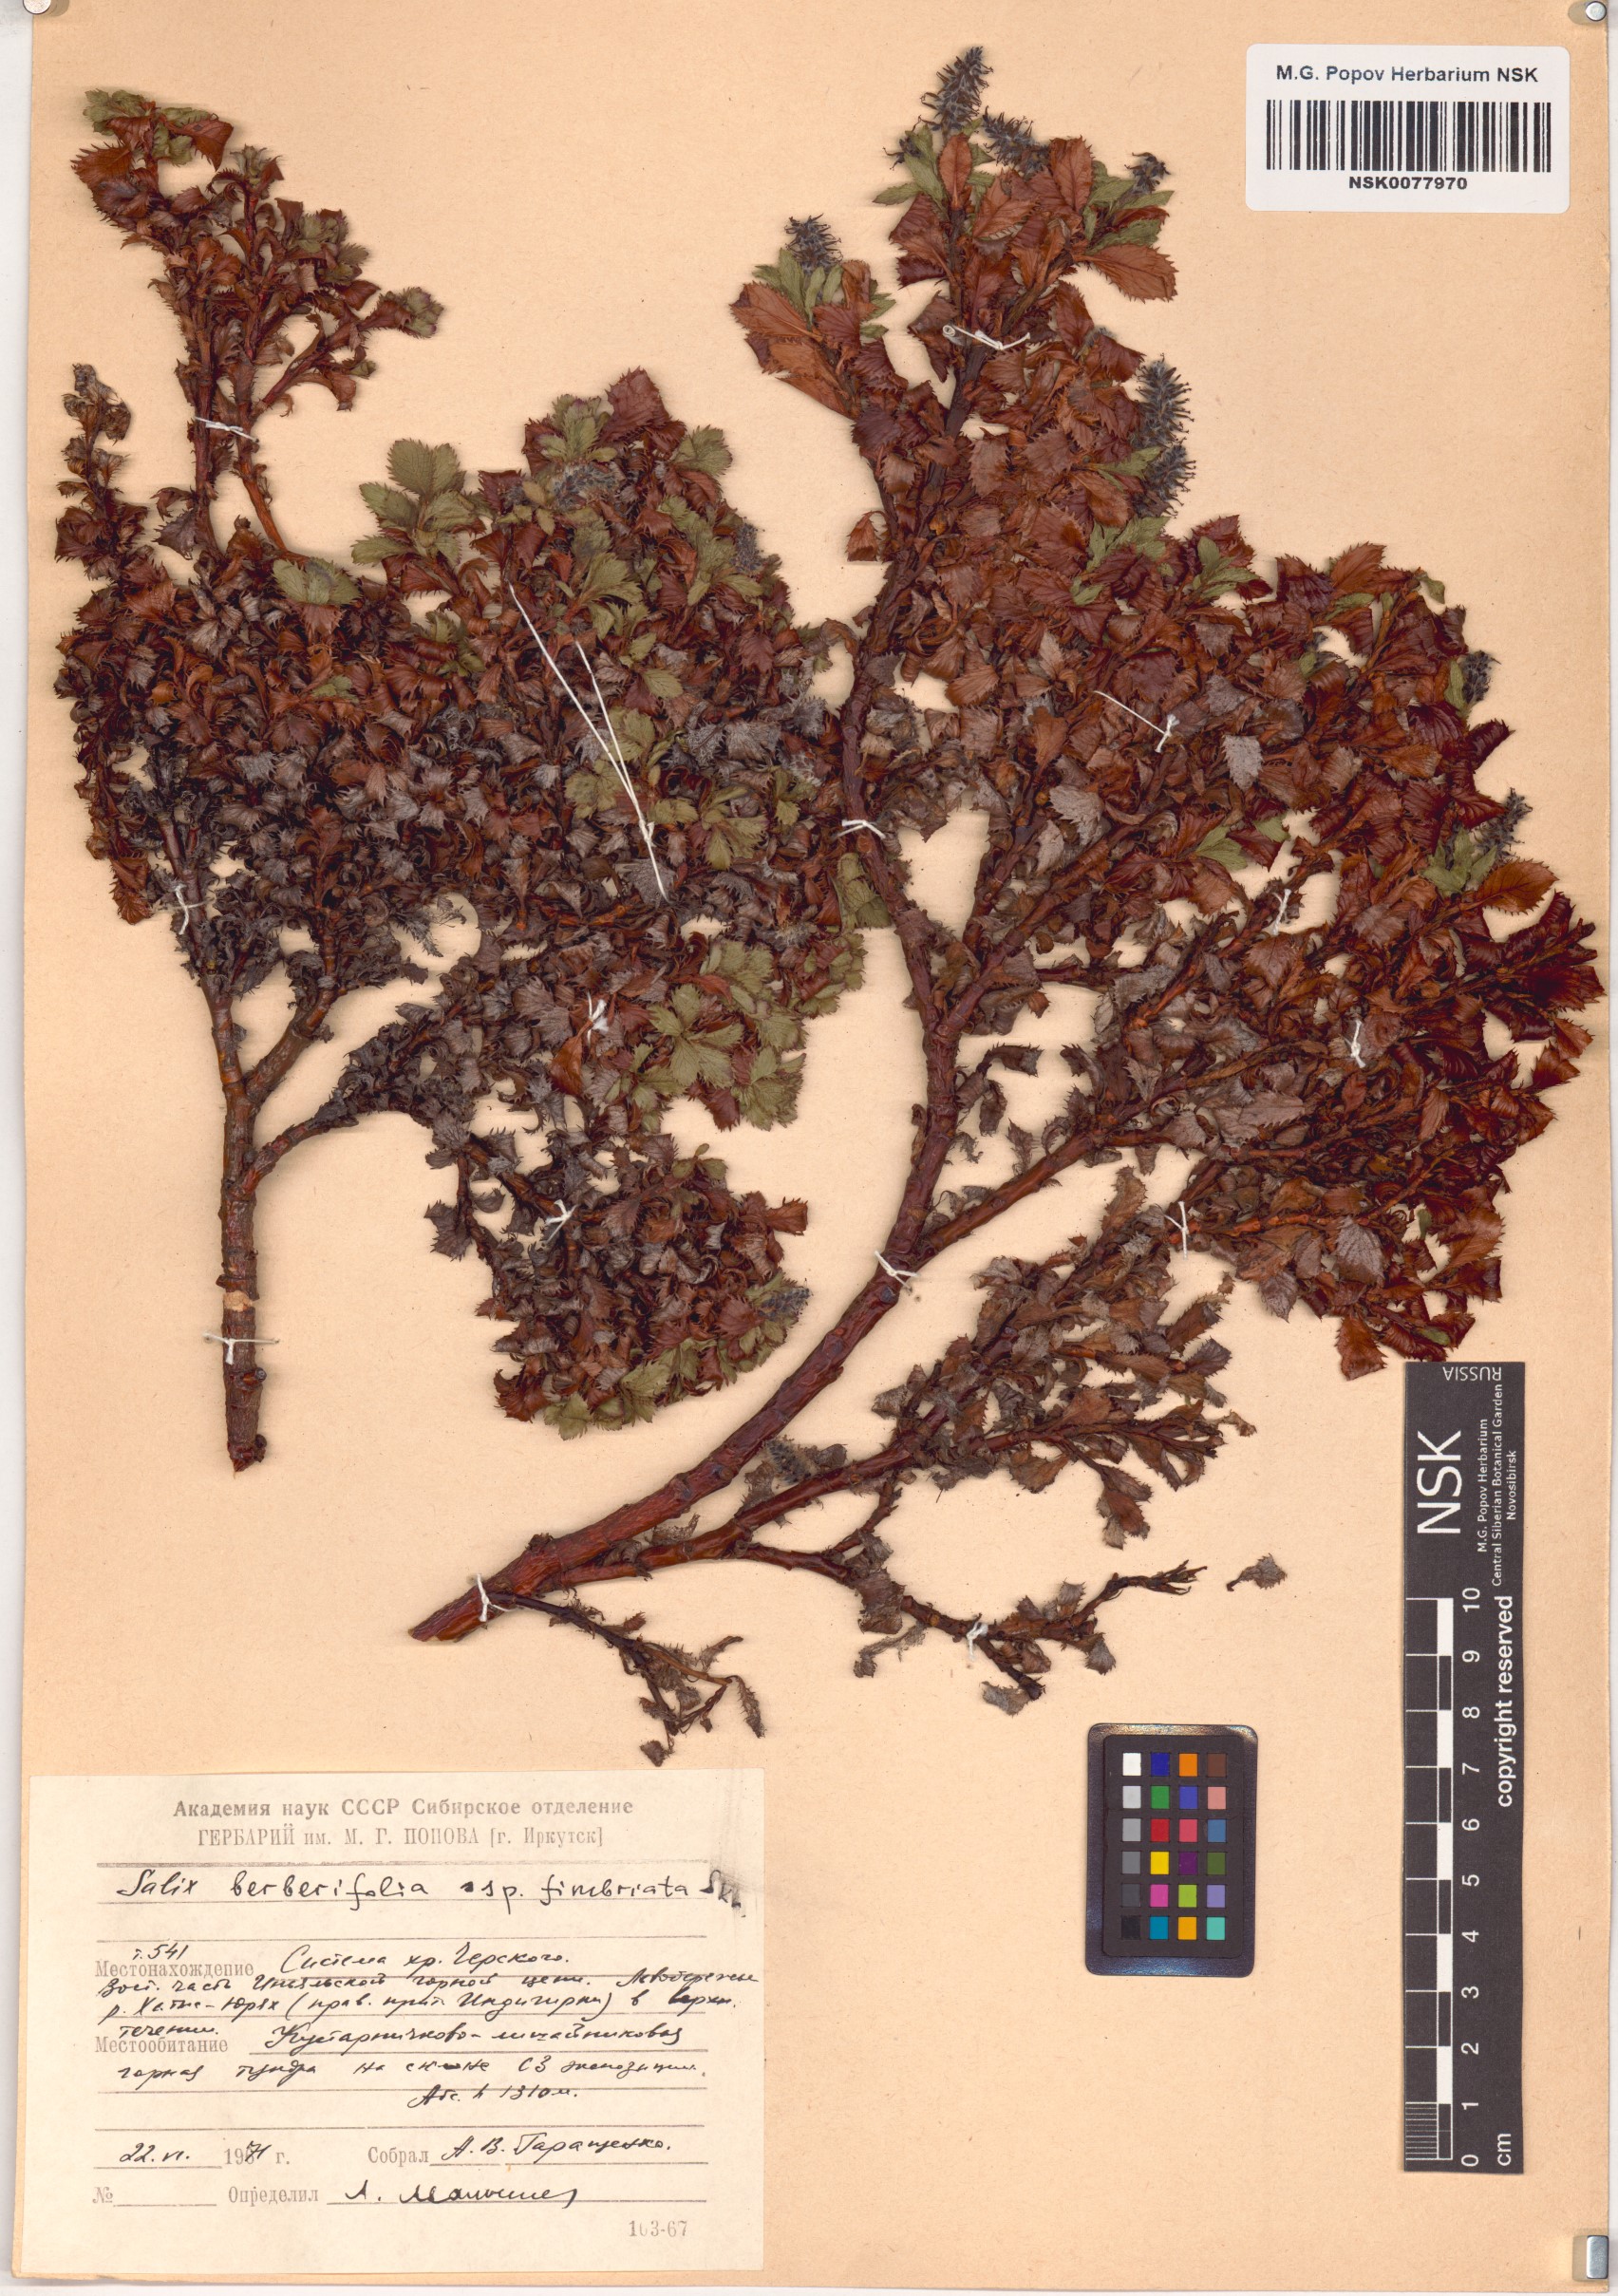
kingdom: Plantae
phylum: Tracheophyta
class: Magnoliopsida
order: Malpighiales
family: Salicaceae
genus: Salix
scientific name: Salix berberifolia
